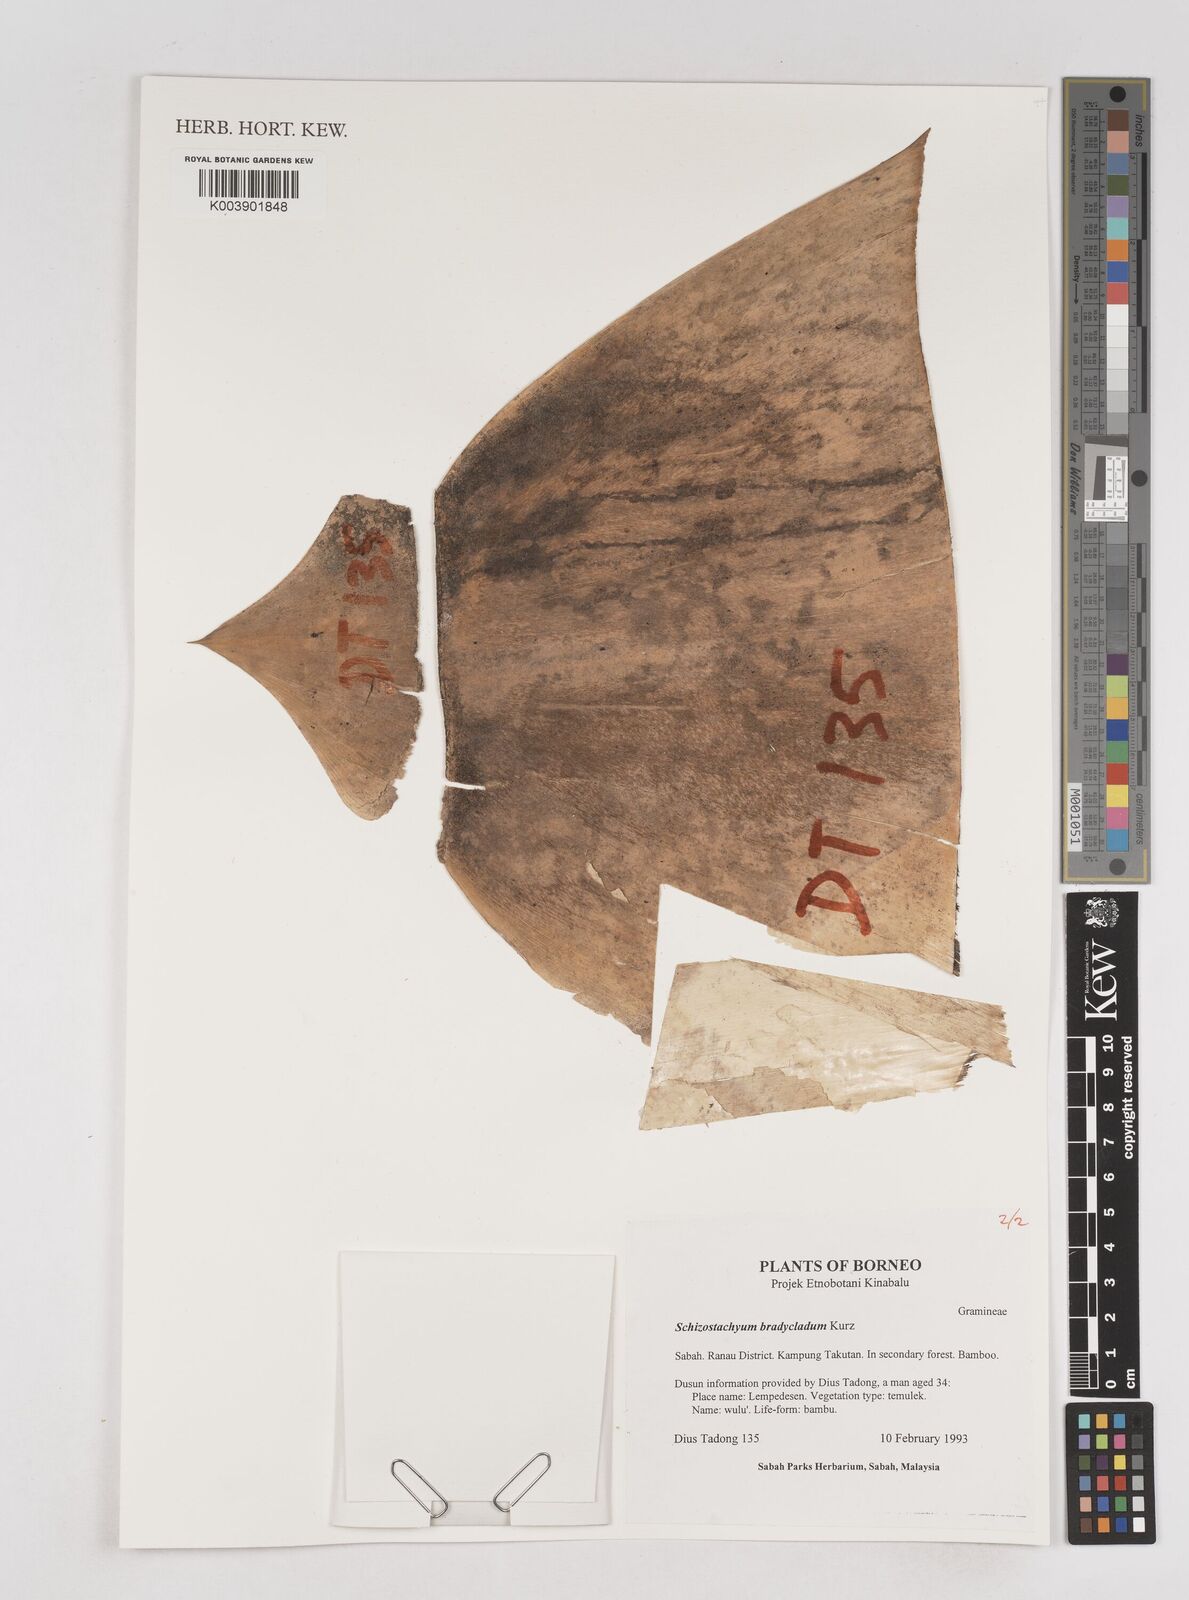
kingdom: Plantae
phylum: Tracheophyta
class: Liliopsida
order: Poales
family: Poaceae
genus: Schizostachyum
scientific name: Schizostachyum brachycladum
